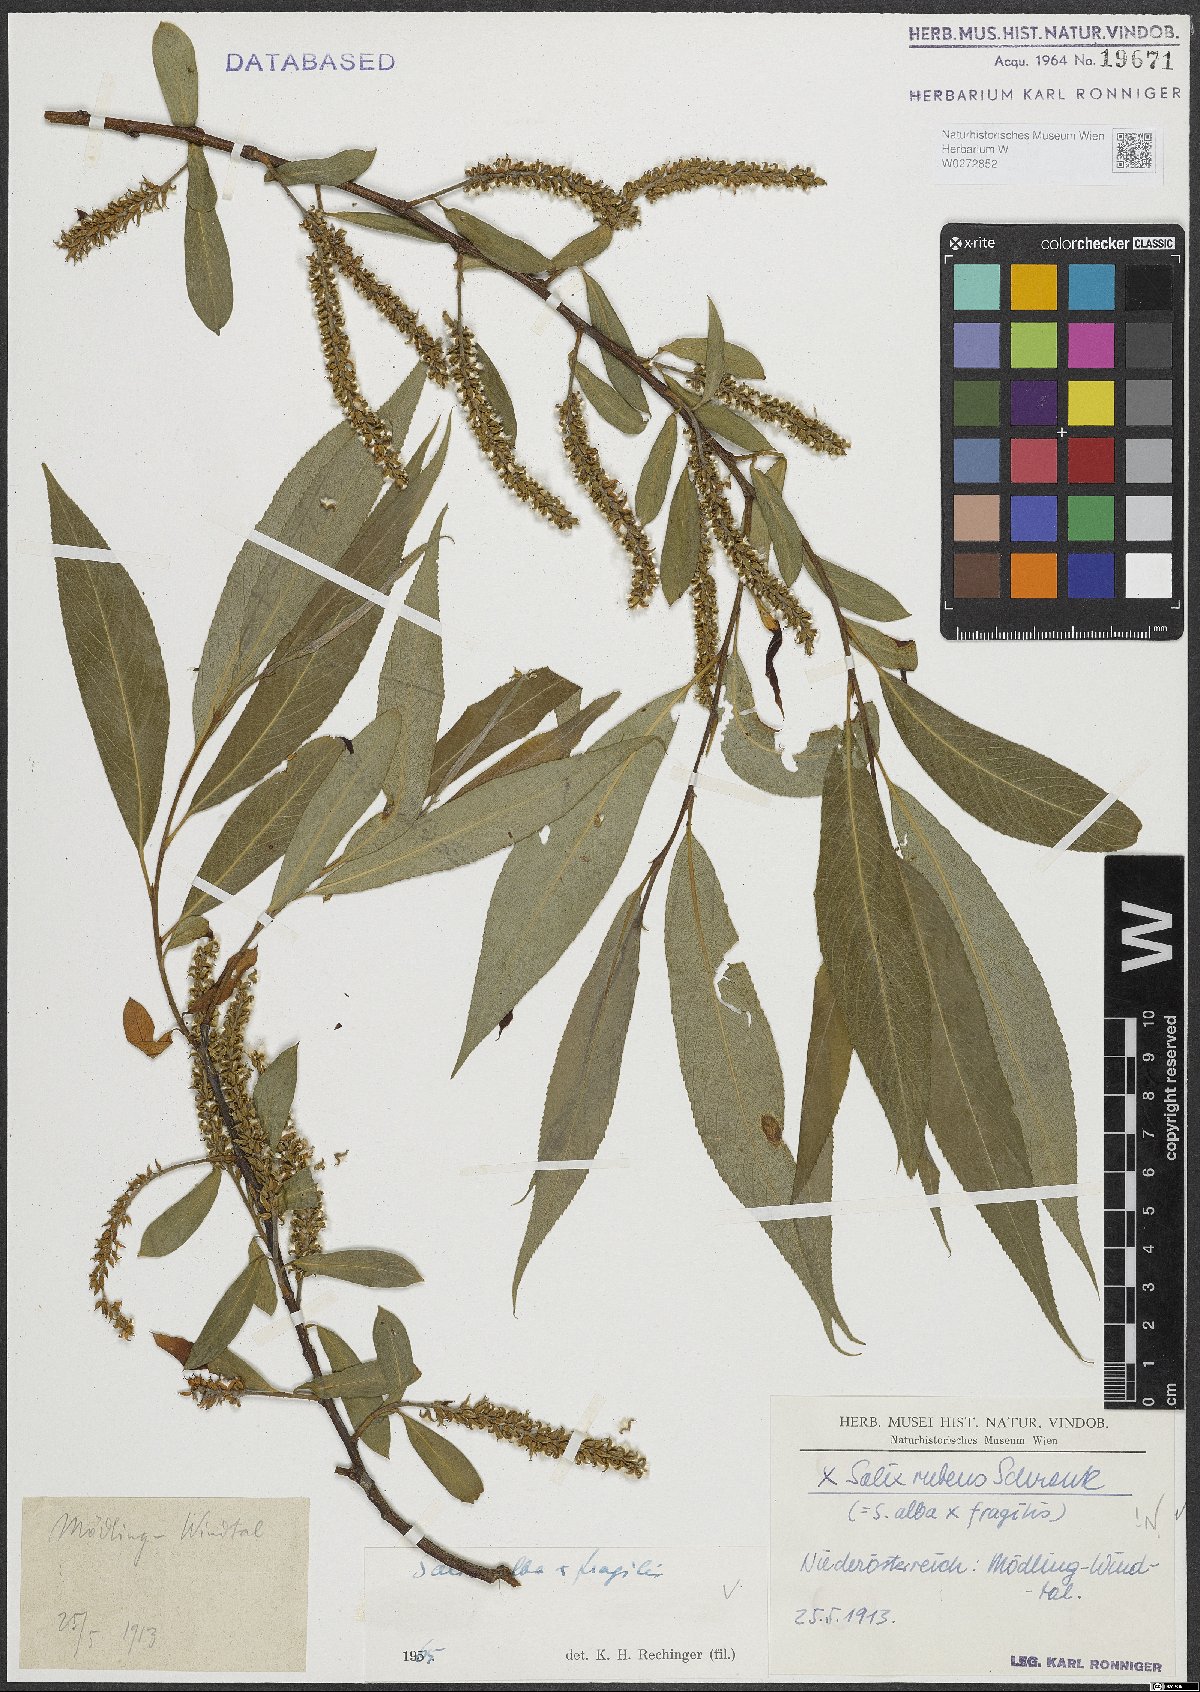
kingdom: Plantae
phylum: Tracheophyta
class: Magnoliopsida
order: Malpighiales
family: Salicaceae
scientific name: Salicaceae
